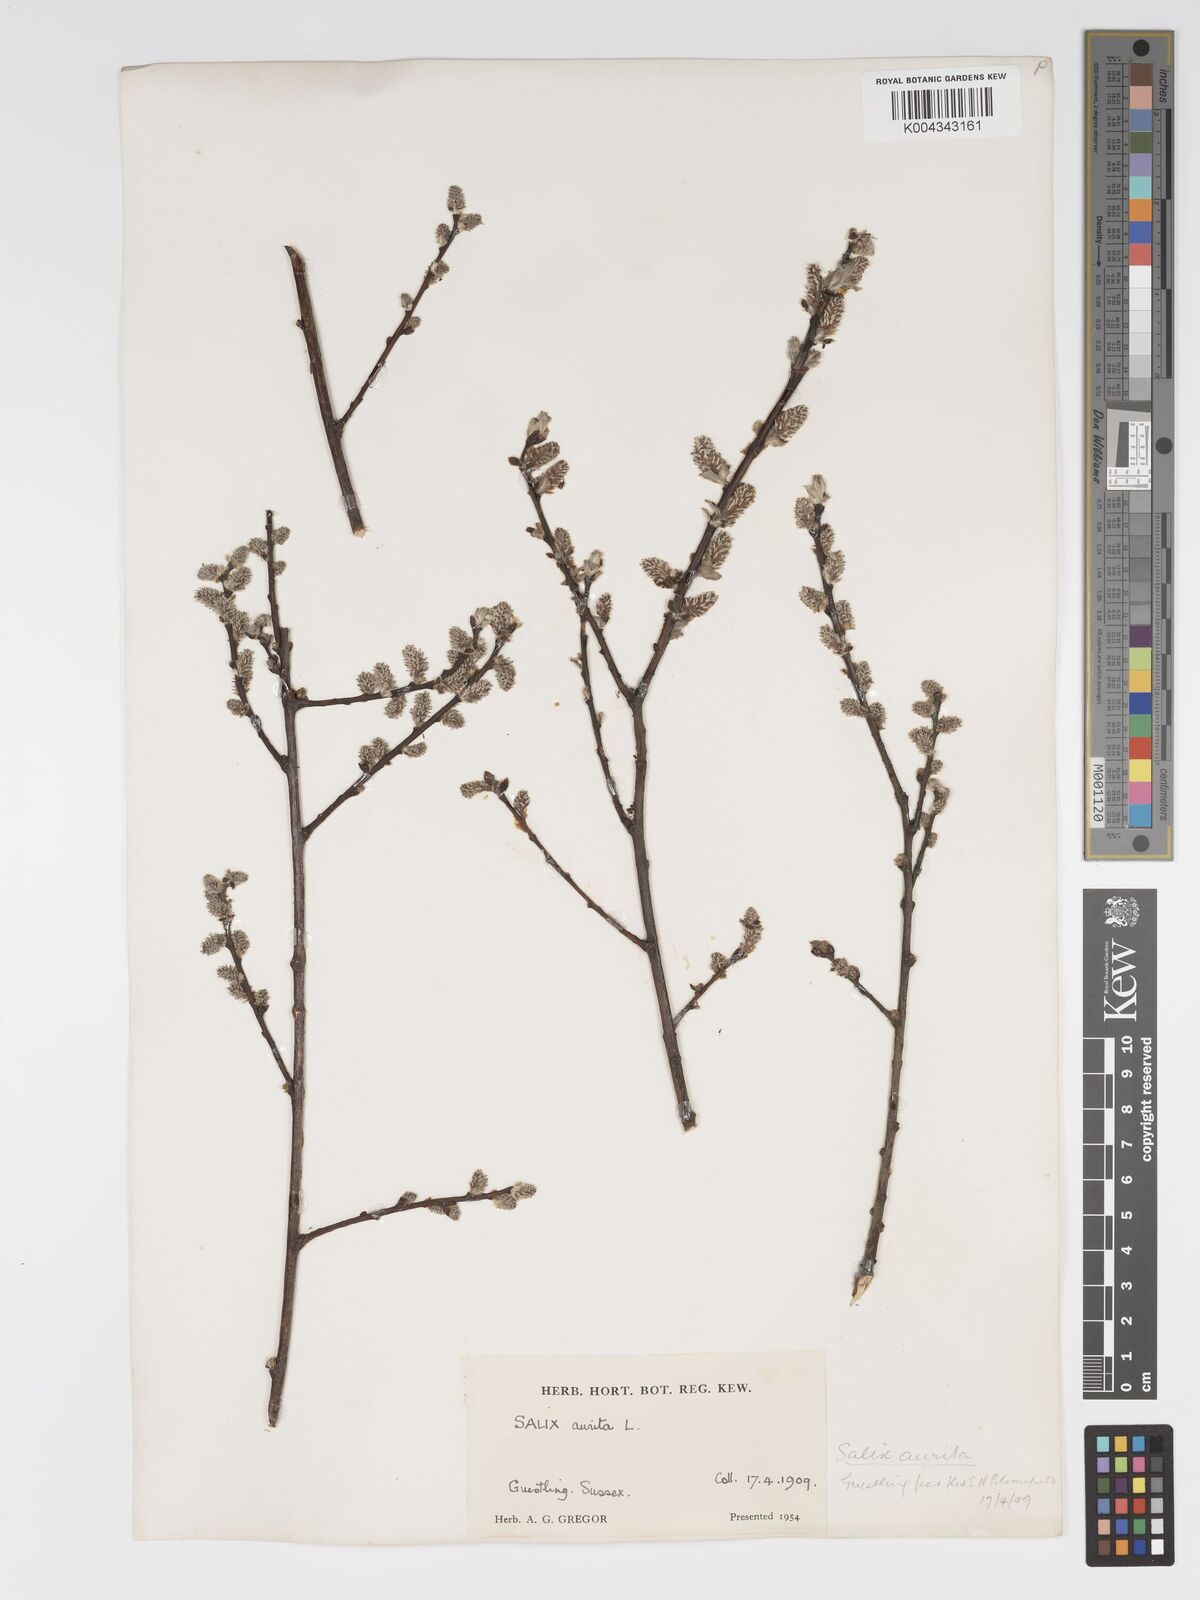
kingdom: Plantae
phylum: Tracheophyta
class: Magnoliopsida
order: Malpighiales
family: Salicaceae
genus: Salix
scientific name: Salix aurita
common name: Eared willow
